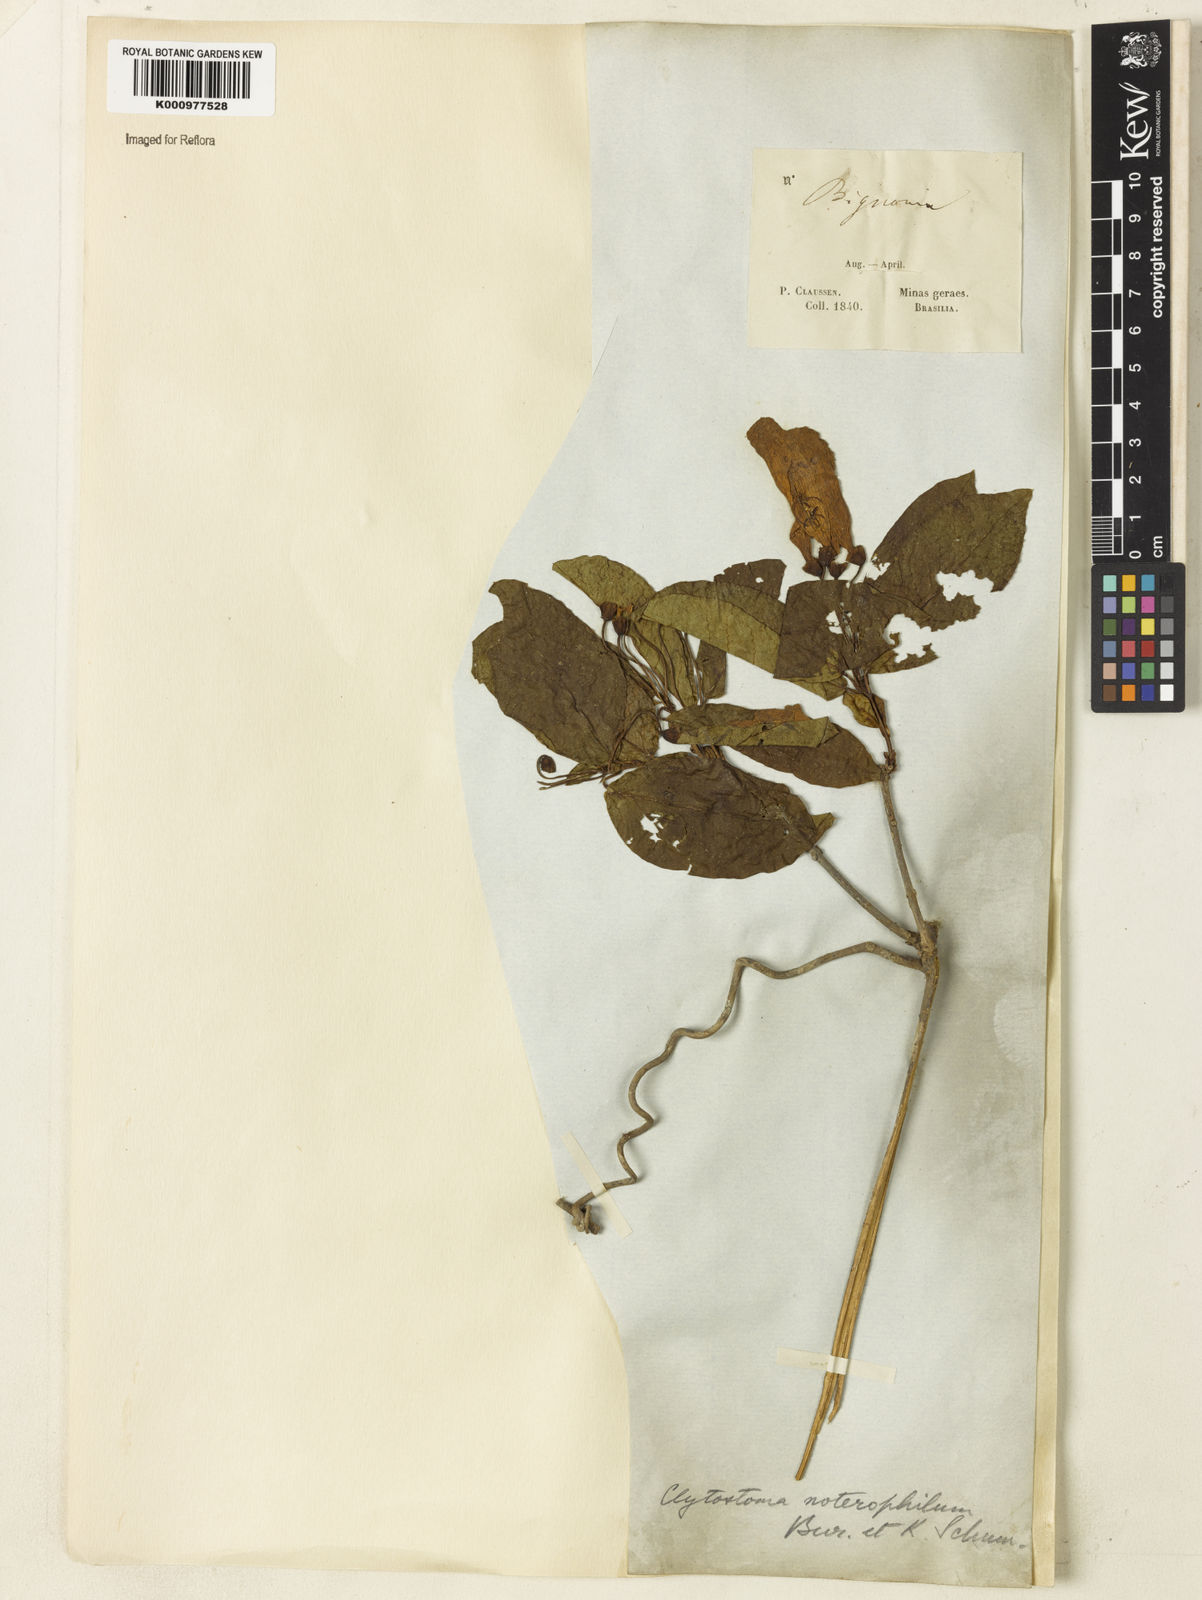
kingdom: Plantae
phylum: Tracheophyta
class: Magnoliopsida
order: Lamiales
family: Bignoniaceae
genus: Bignonia
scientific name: Bignonia binata
